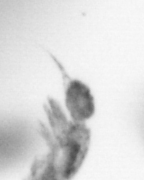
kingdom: Animalia
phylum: Arthropoda
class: Copepoda
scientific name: Copepoda
